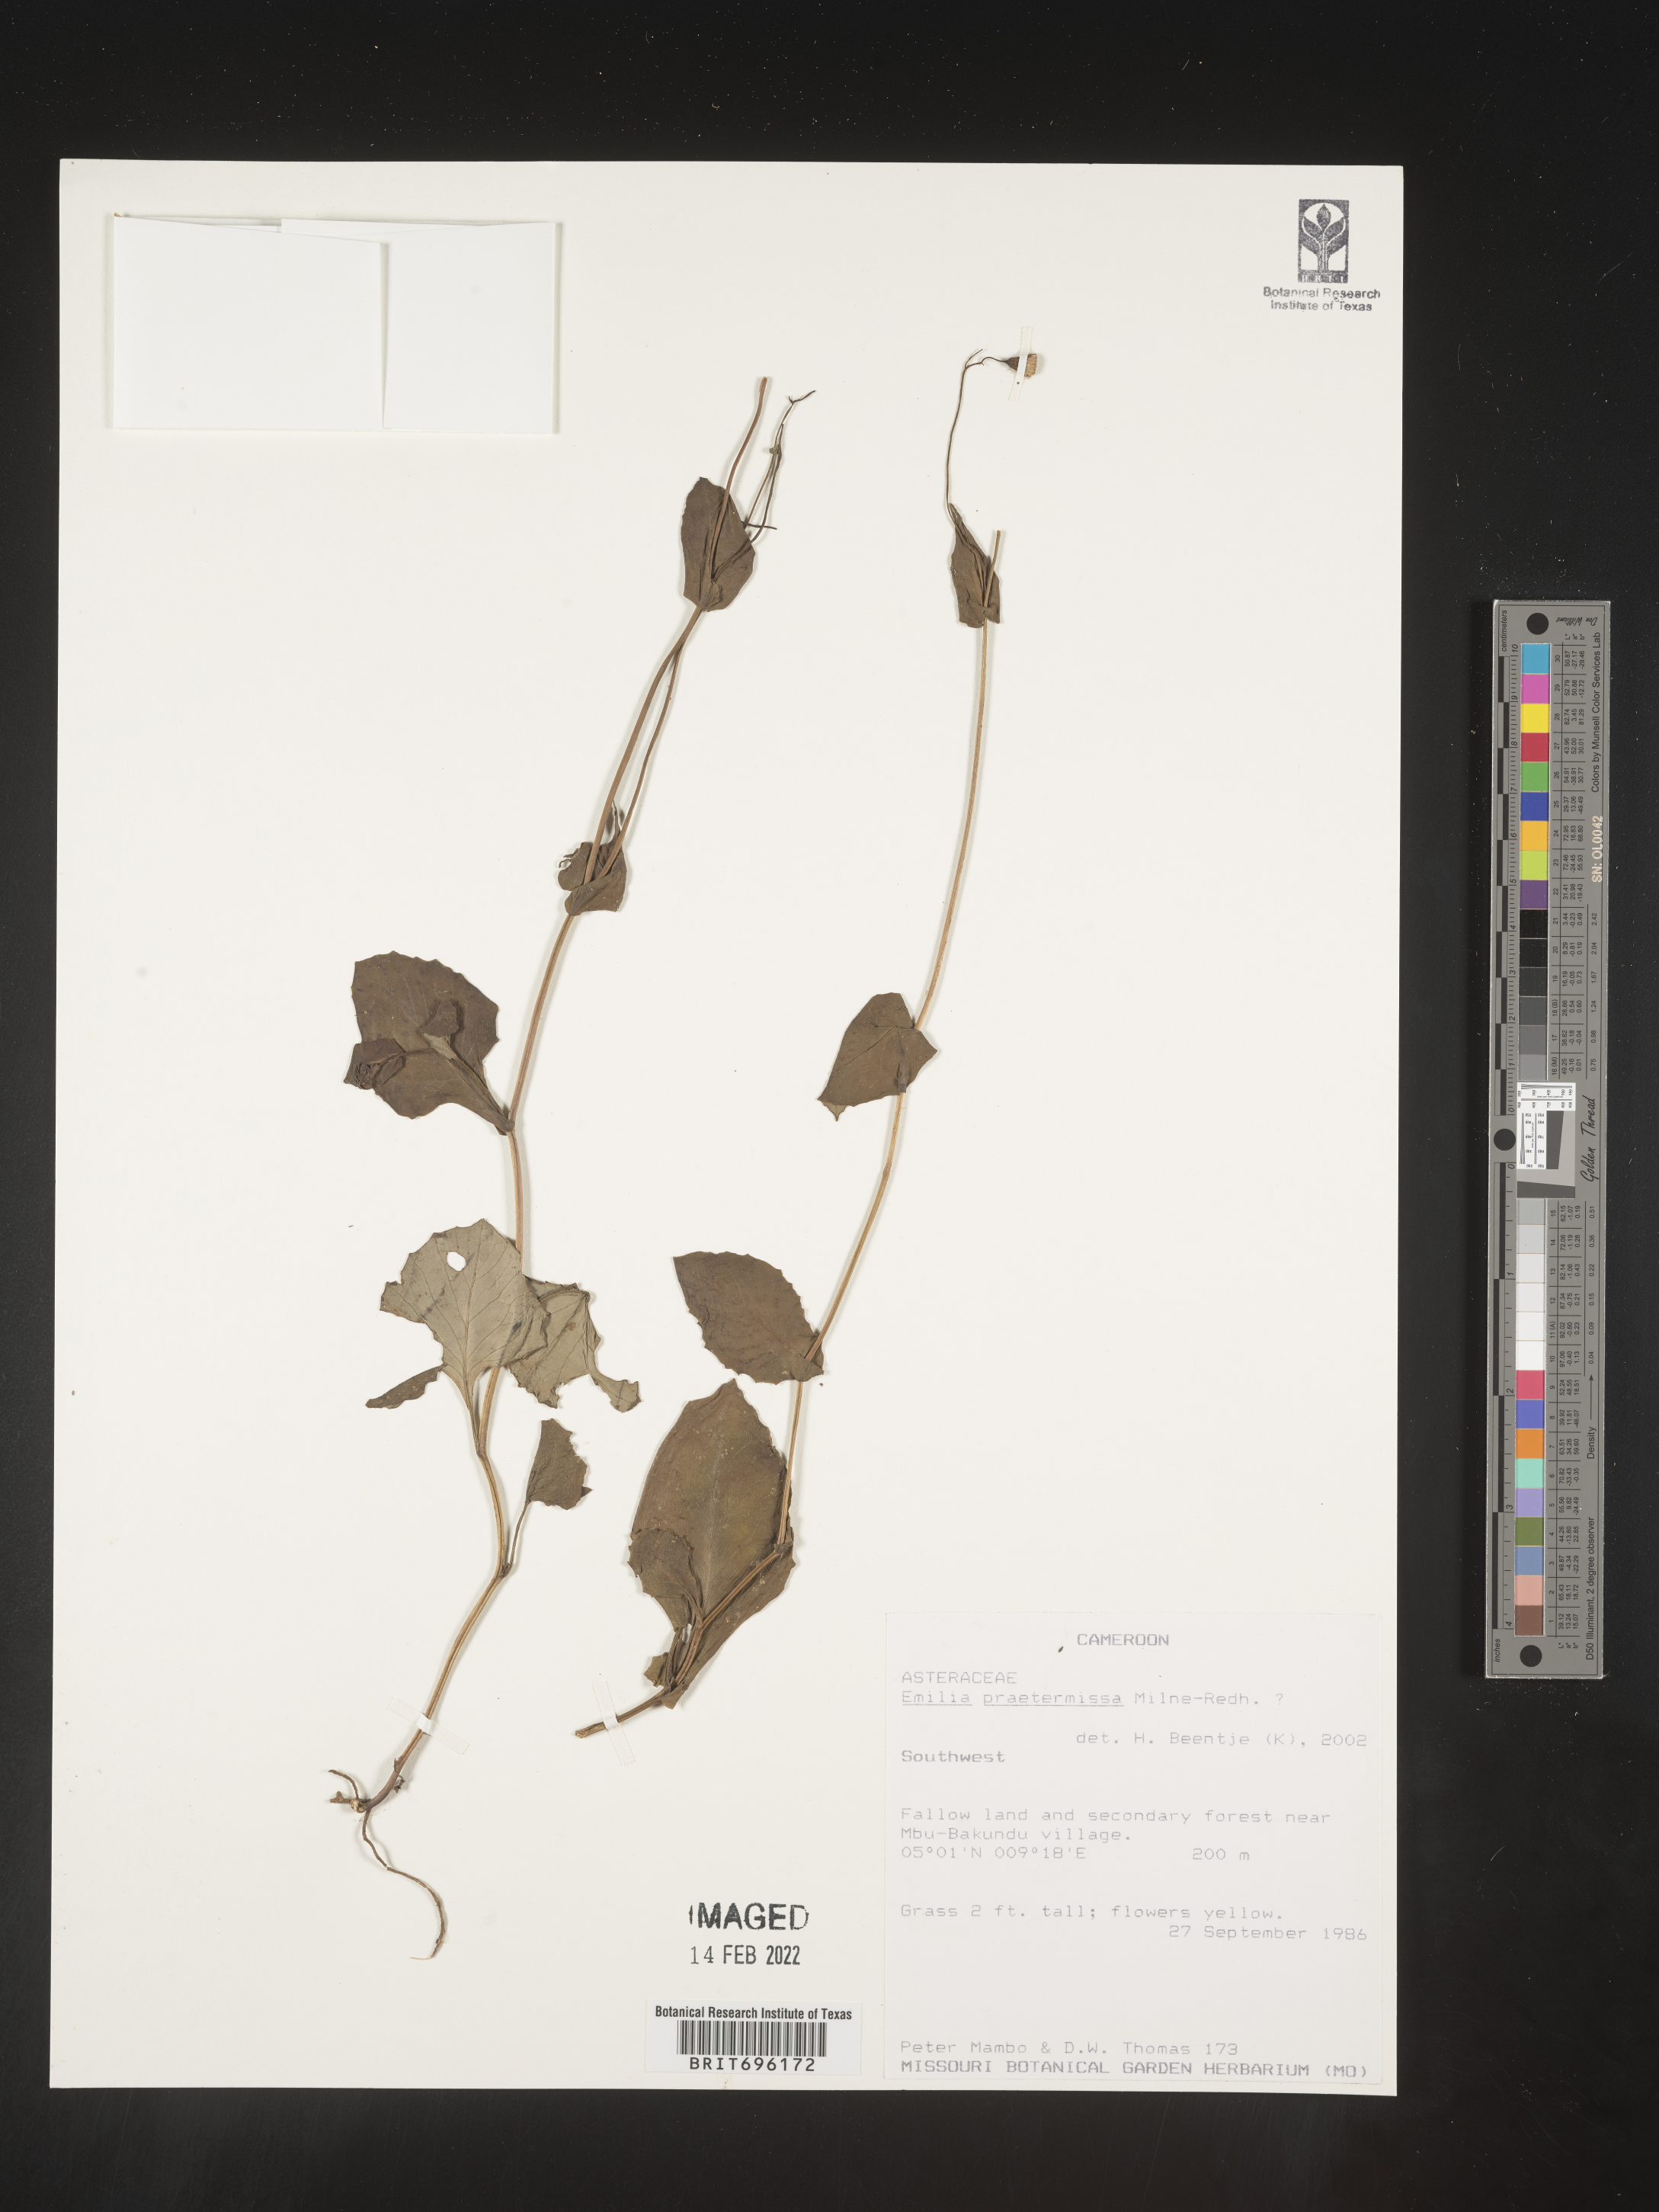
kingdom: Plantae
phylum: Tracheophyta
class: Magnoliopsida
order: Asterales
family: Asteraceae
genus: Emilia
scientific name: Emilia
